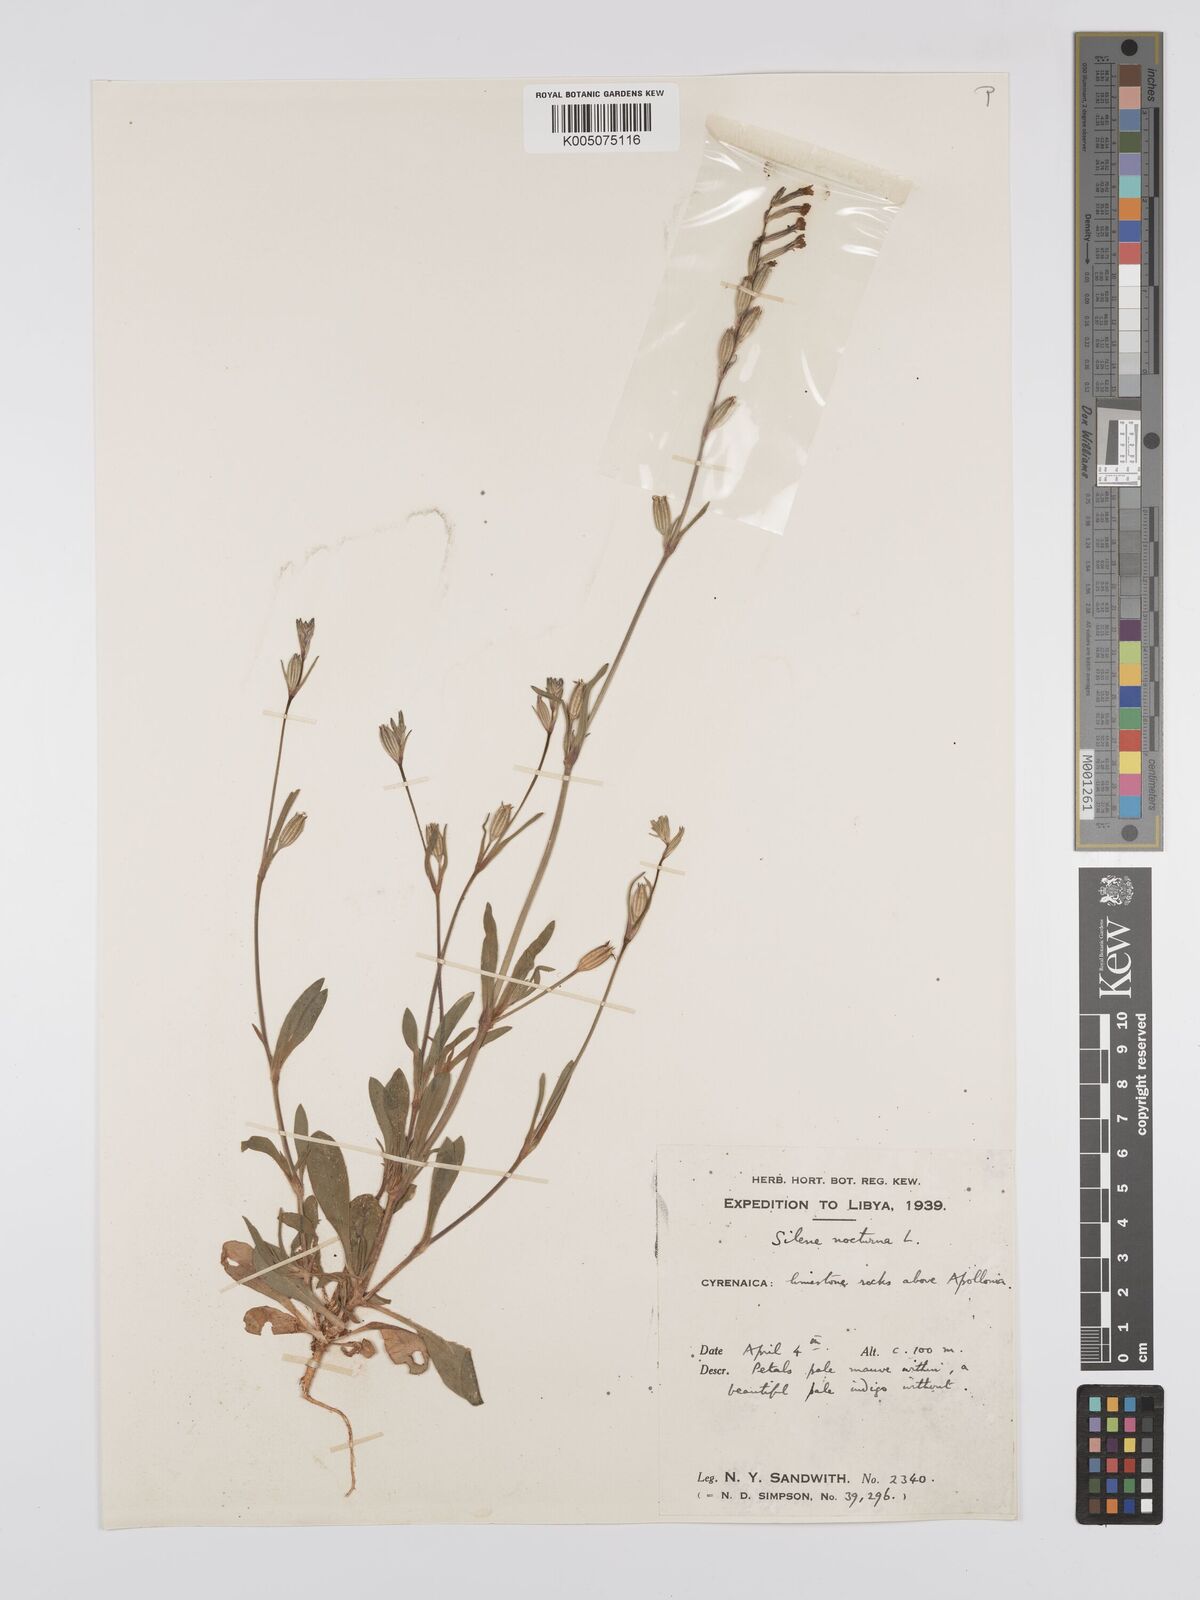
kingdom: Plantae
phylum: Tracheophyta
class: Magnoliopsida
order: Caryophyllales
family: Caryophyllaceae
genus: Silene
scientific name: Silene nocturna
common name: Mediterranean catchfly
